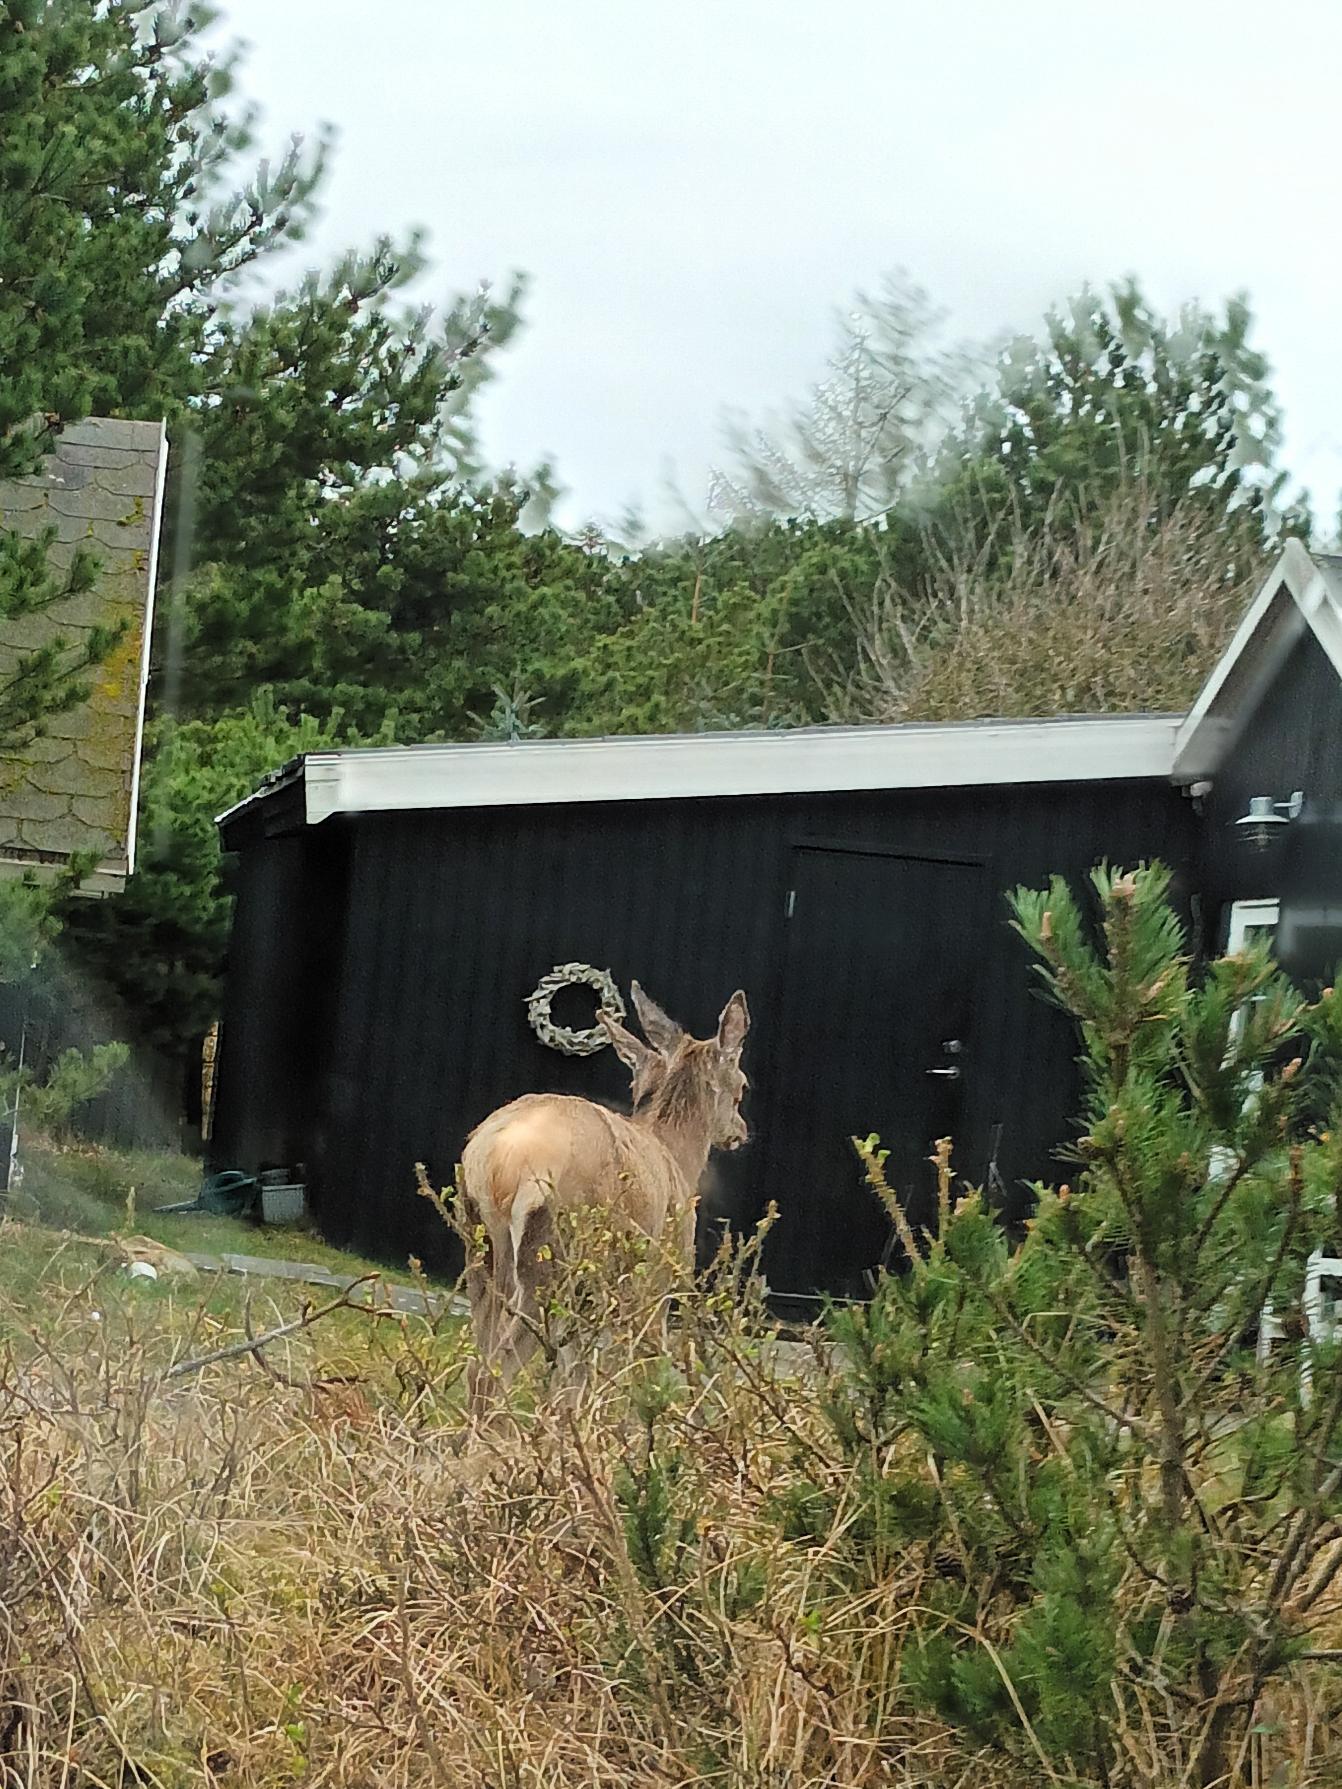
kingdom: Animalia
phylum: Chordata
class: Mammalia
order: Artiodactyla
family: Cervidae
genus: Cervus
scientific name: Cervus elaphus
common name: Krondyr
